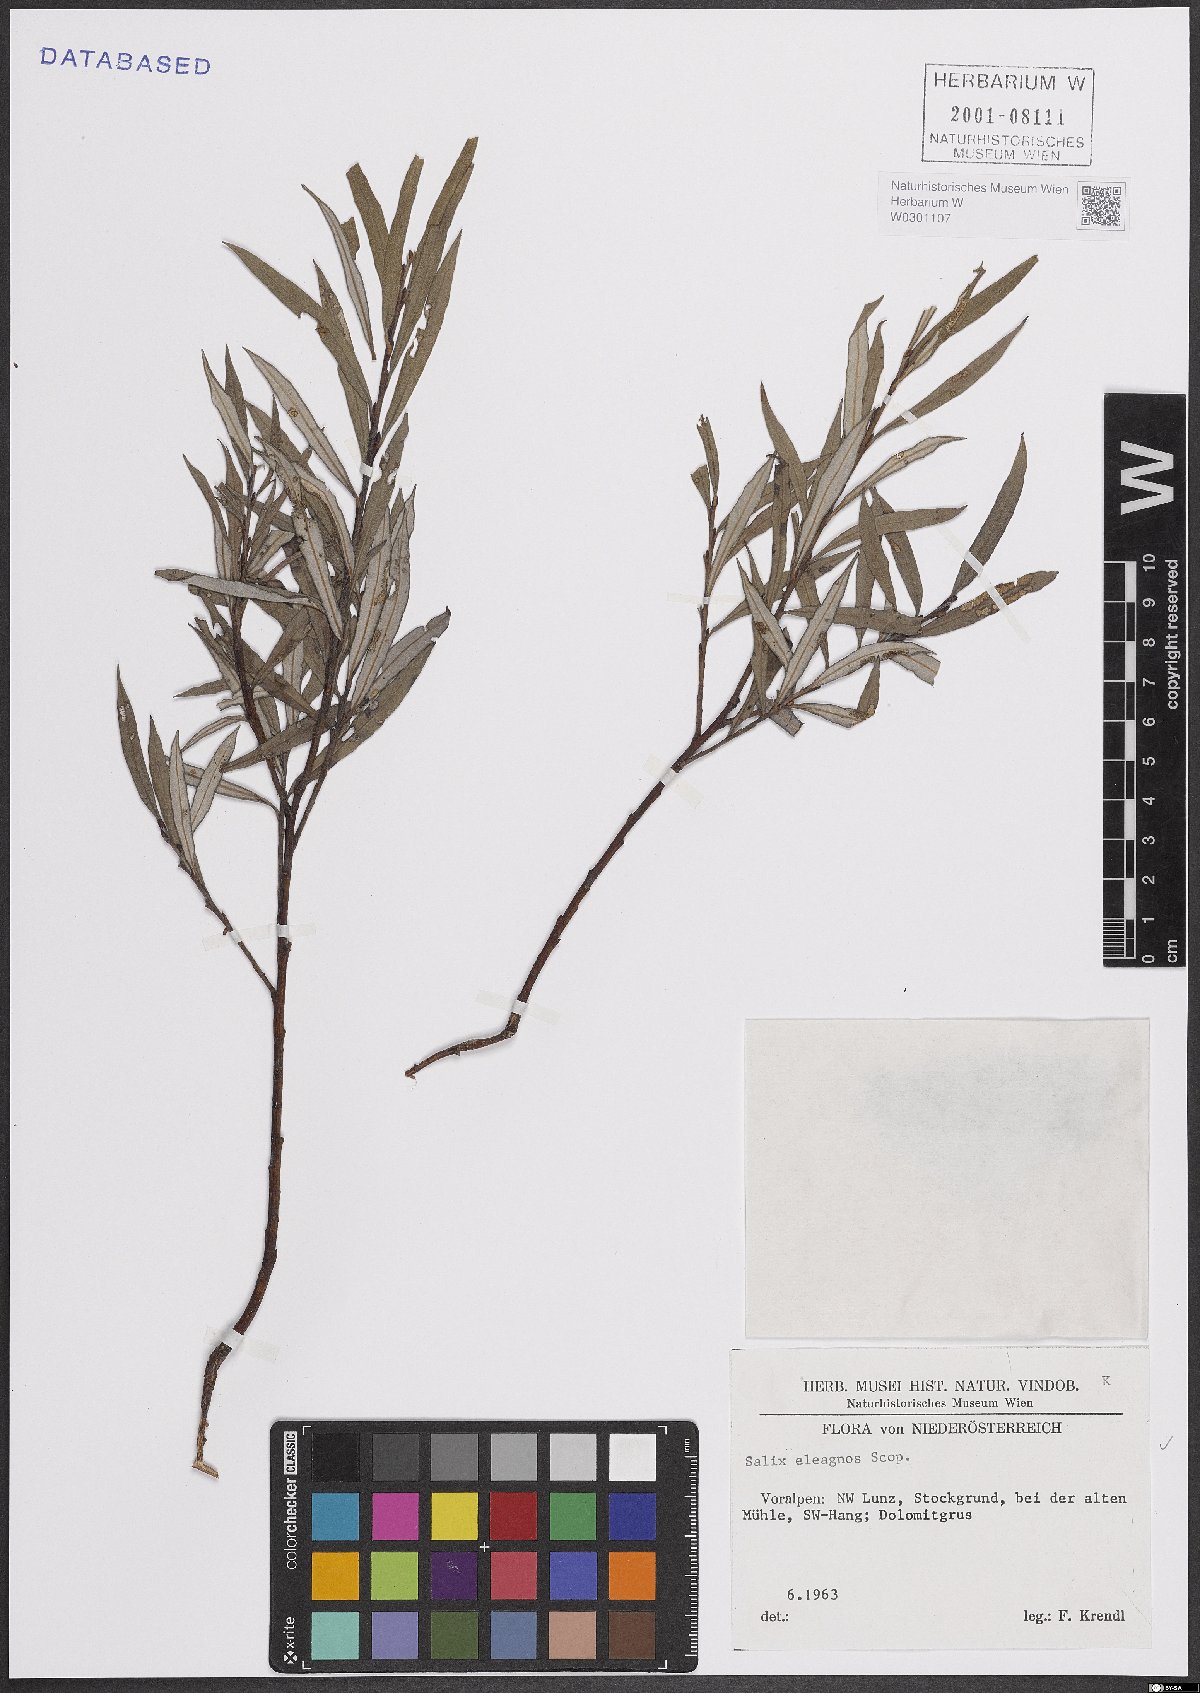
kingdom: Plantae
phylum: Tracheophyta
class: Magnoliopsida
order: Malpighiales
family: Salicaceae
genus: Salix
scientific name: Salix eleagnos
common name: Elaeagnus willow
